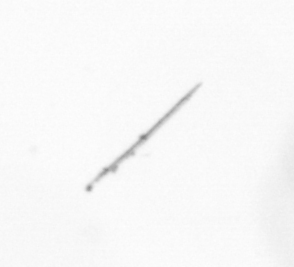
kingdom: Chromista
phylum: Ochrophyta
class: Bacillariophyceae
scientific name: Bacillariophyceae
